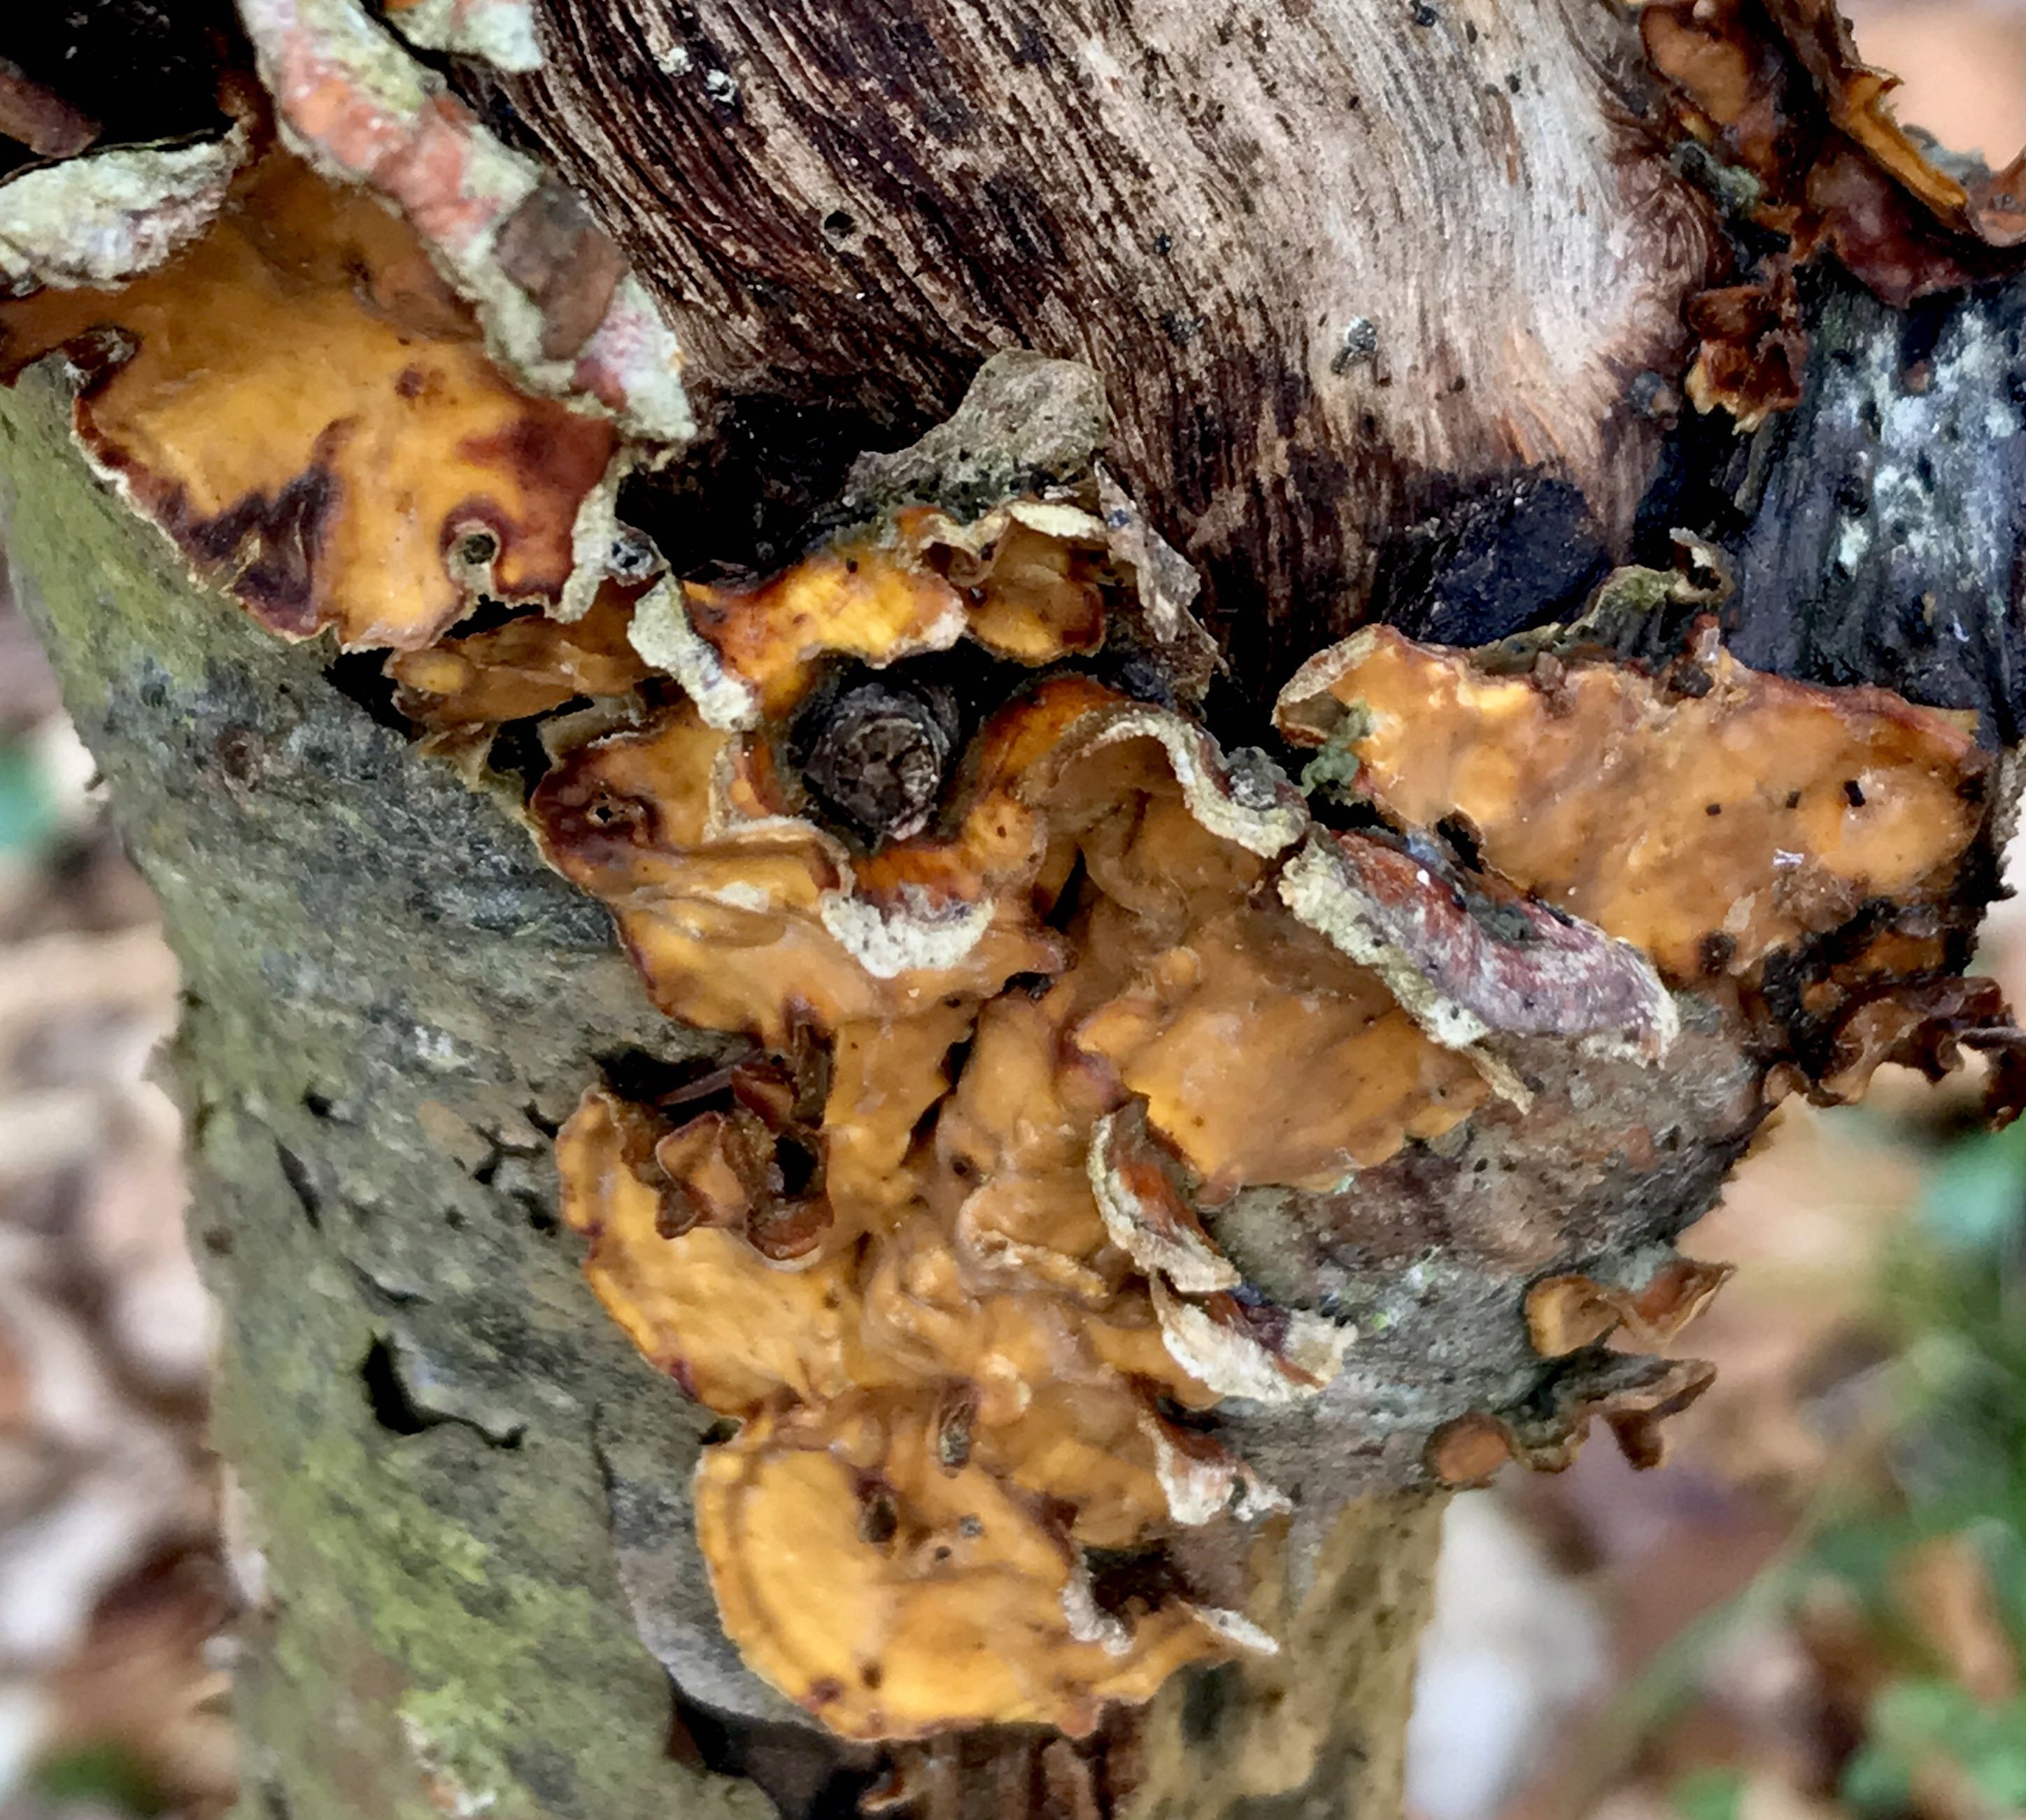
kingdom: Fungi
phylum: Basidiomycota
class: Agaricomycetes
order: Russulales
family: Stereaceae
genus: Stereum
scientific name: Stereum subtomentosum
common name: smuk lædersvamp
